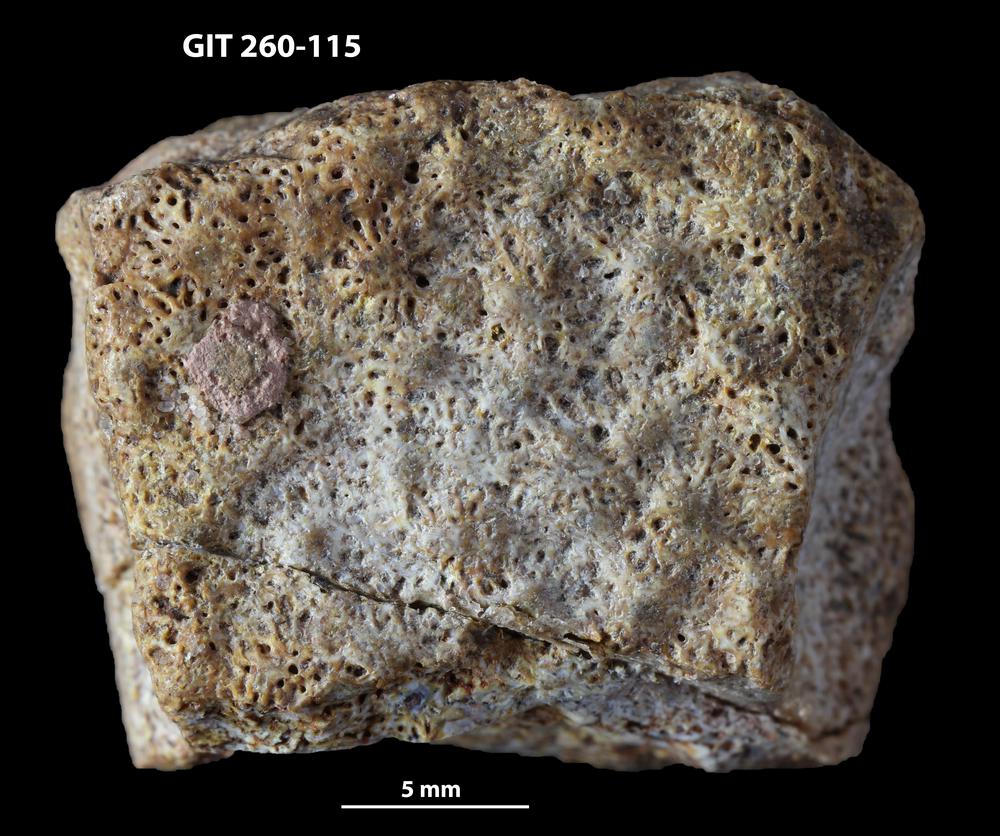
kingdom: Animalia
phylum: Chordata
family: Homostiidae
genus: Homostius
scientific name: Homostius
